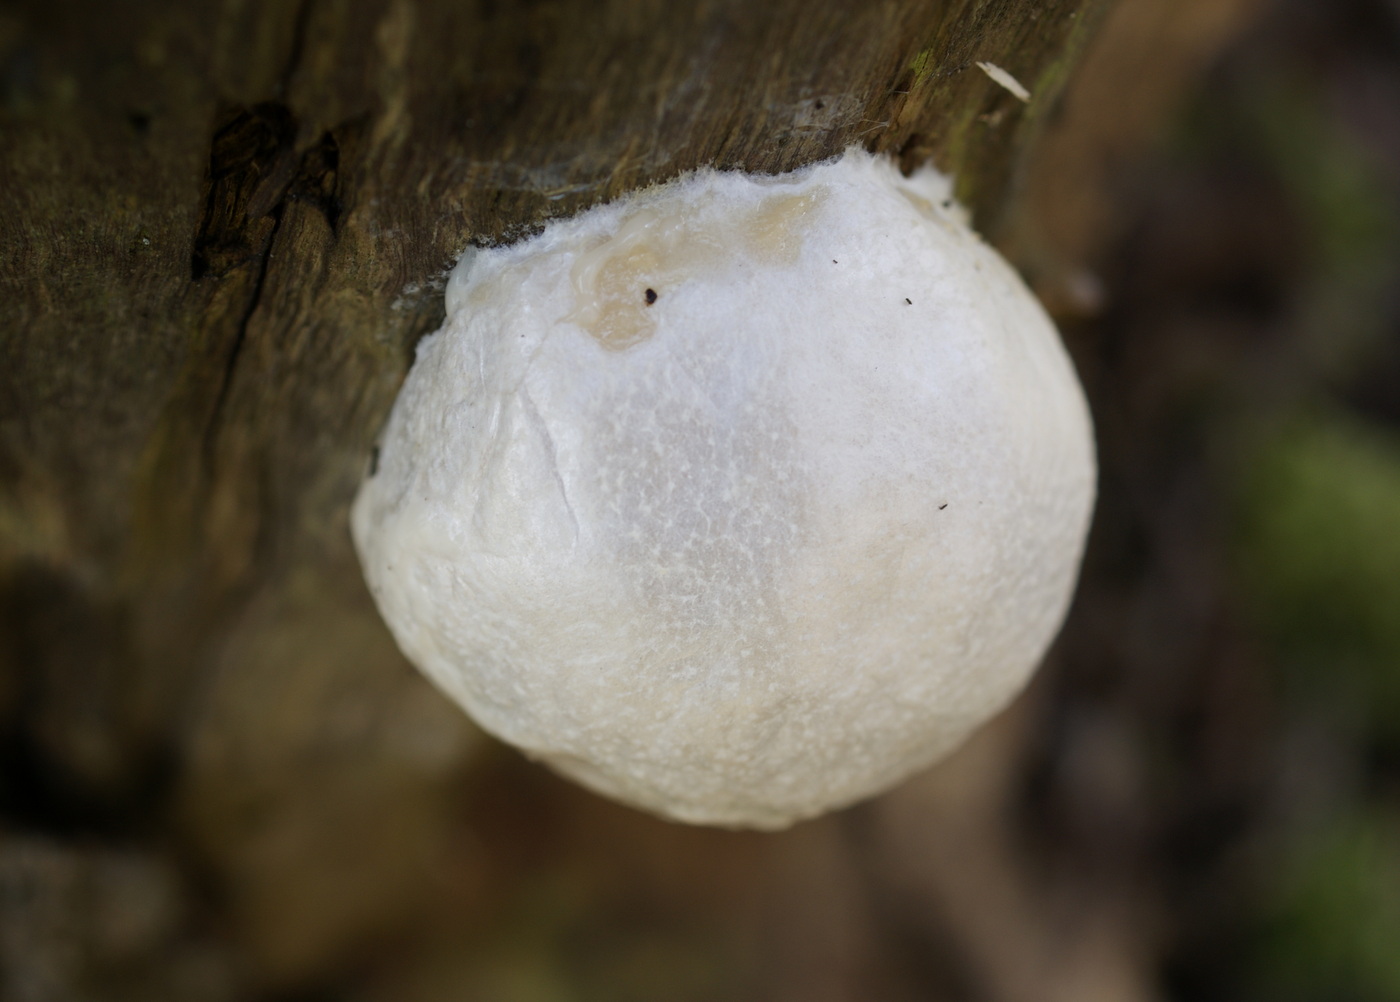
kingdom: Protozoa
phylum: Mycetozoa
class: Myxomycetes
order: Cribrariales
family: Tubiferaceae
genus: Reticularia
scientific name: Reticularia lycoperdon
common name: skinnende støvpude
